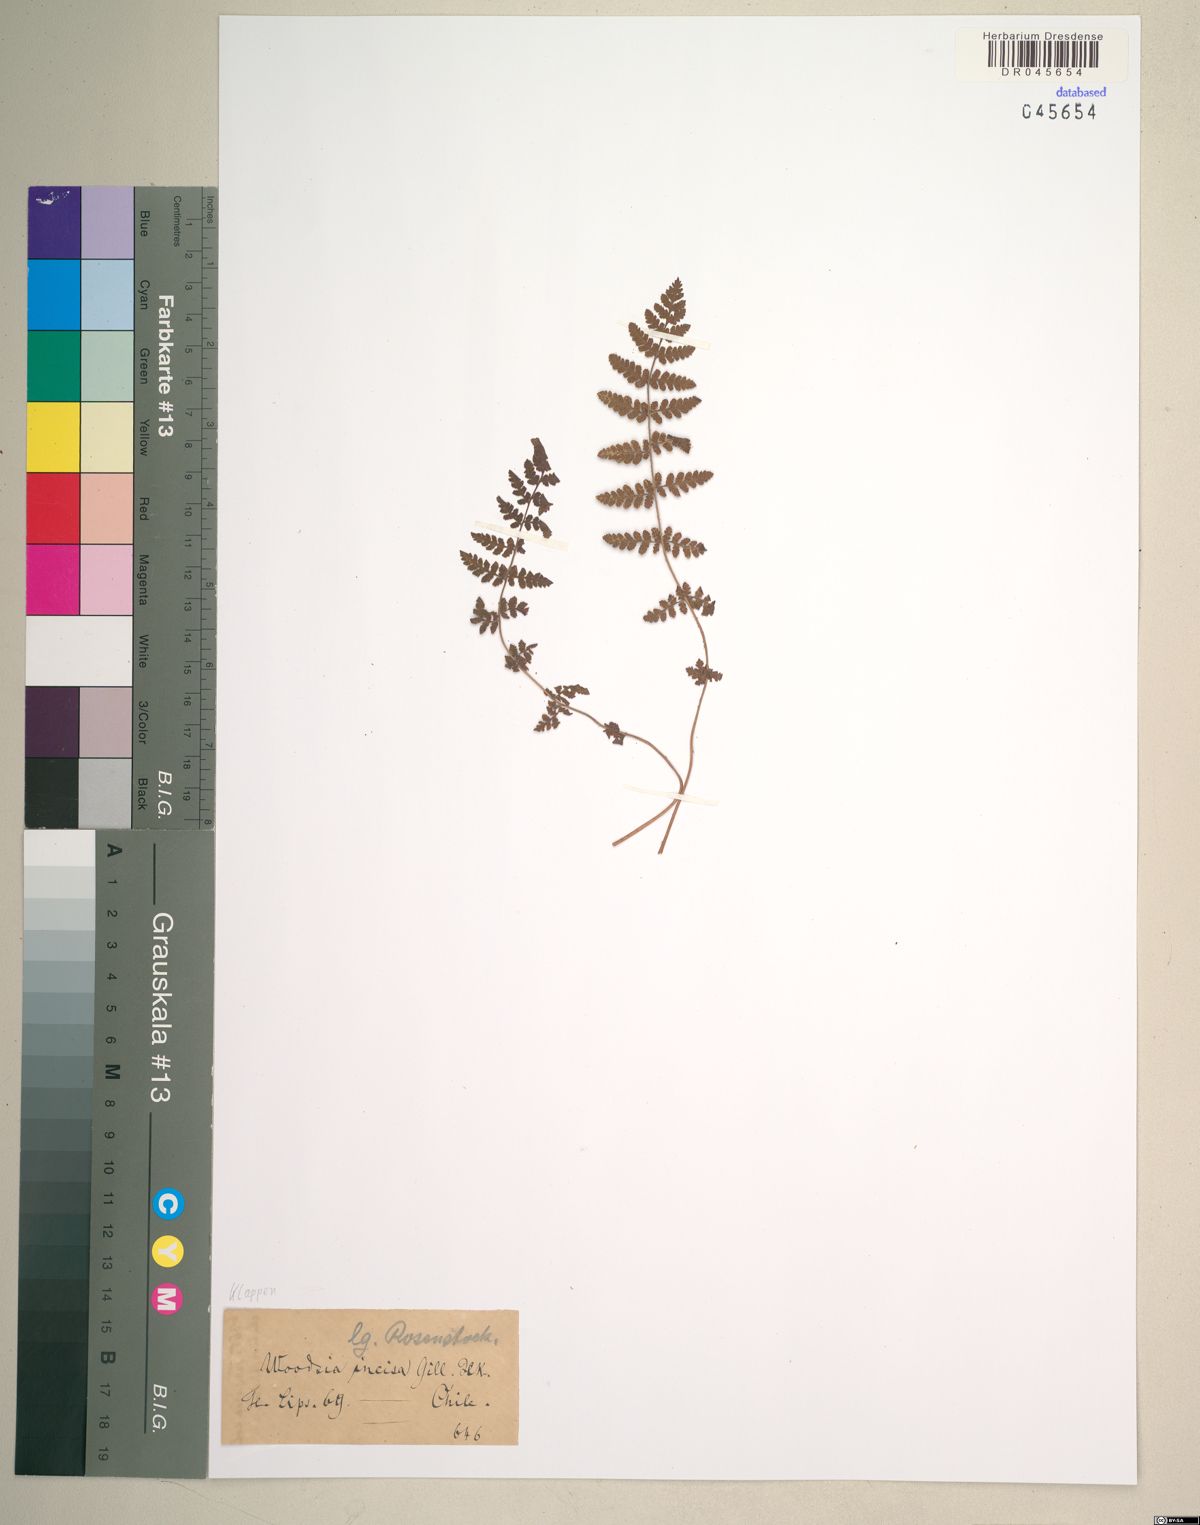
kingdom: Plantae
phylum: Tracheophyta
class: Polypodiopsida
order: Polypodiales
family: Woodsiaceae
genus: Physematium
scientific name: Physematium montevidense
